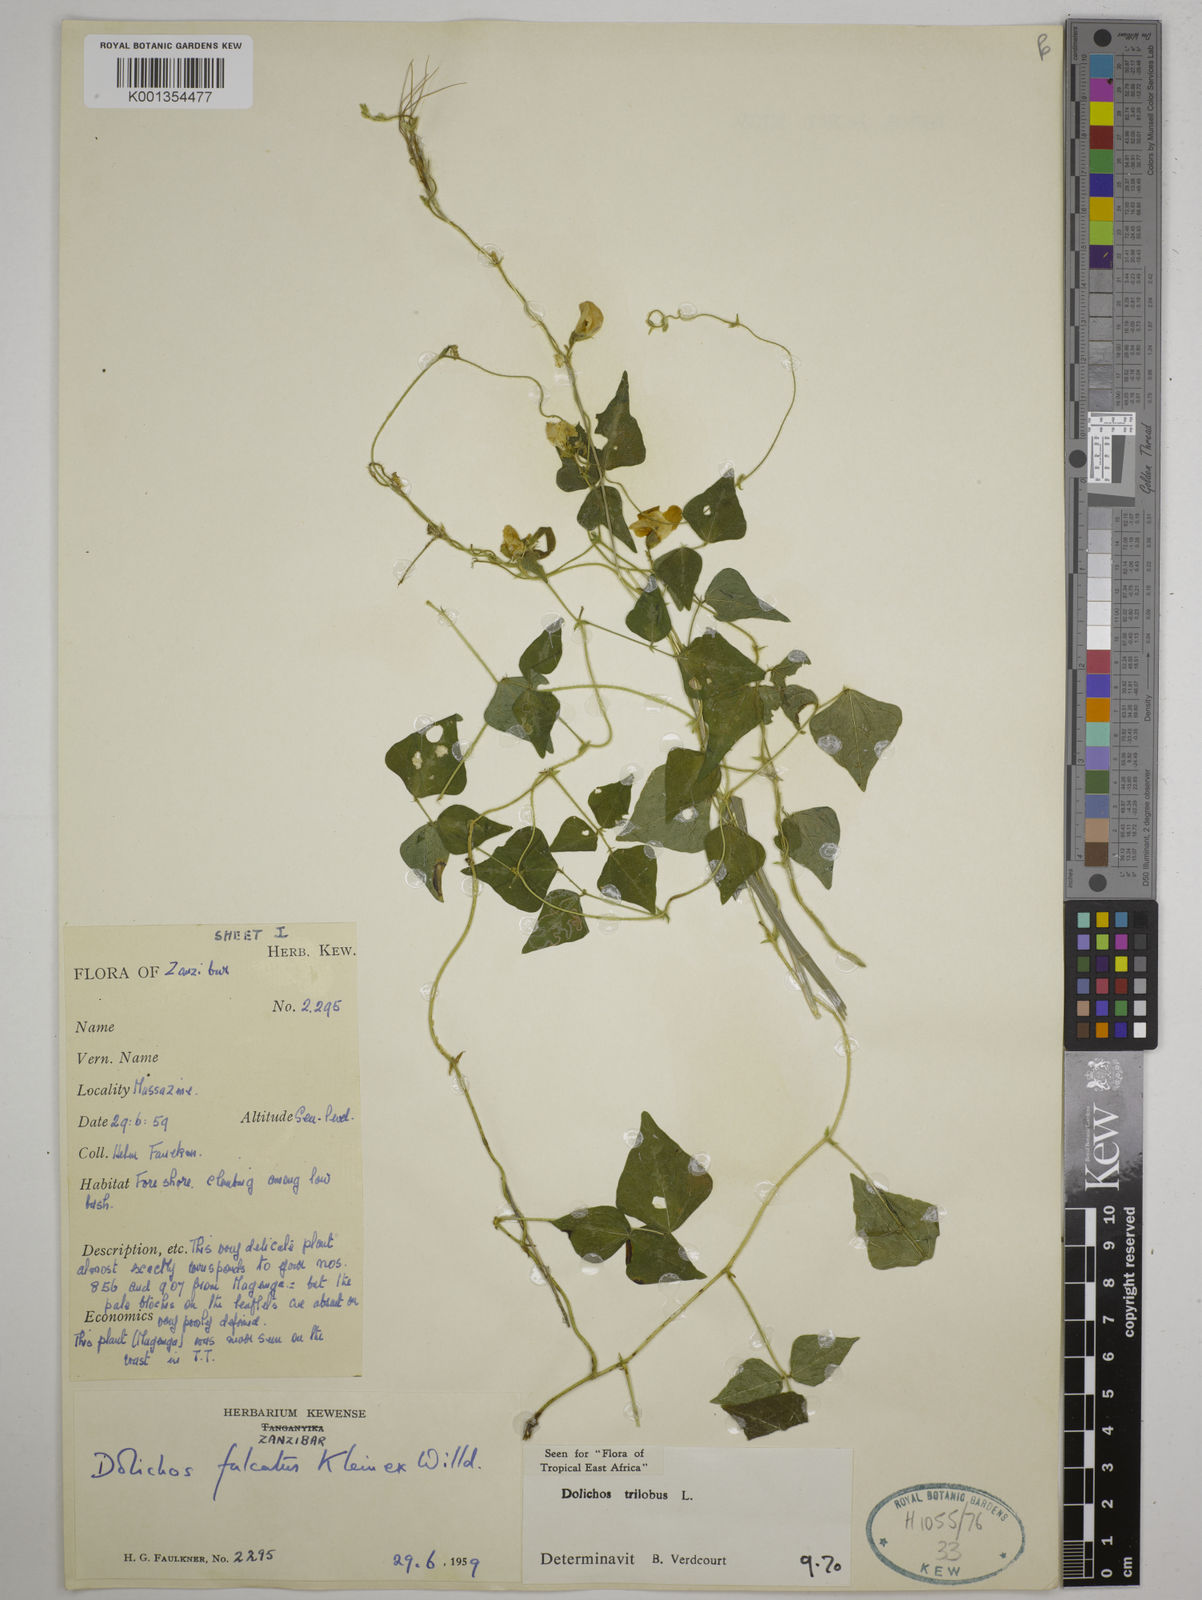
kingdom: Plantae
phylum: Tracheophyta
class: Magnoliopsida
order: Fabales
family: Fabaceae
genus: Dolichos
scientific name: Dolichos
